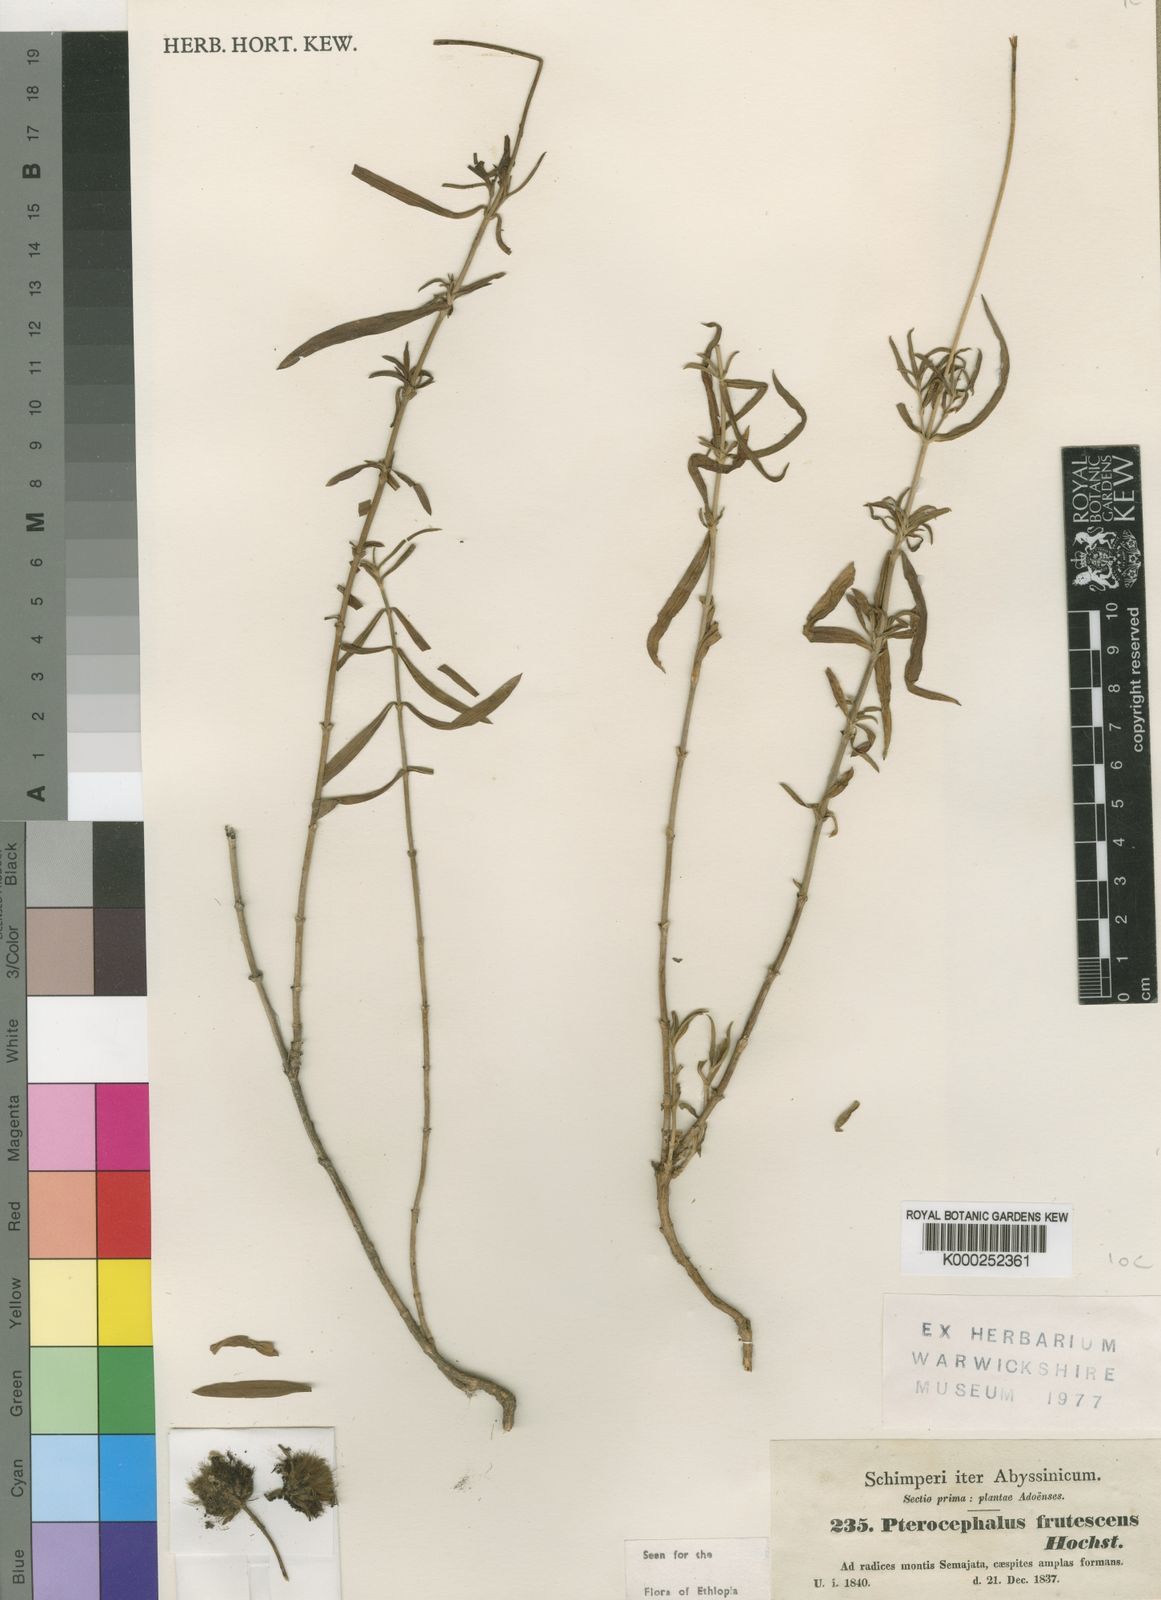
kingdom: Plantae
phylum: Tracheophyta
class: Magnoliopsida
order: Dipsacales
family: Caprifoliaceae
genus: Pterocephalus
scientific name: Pterocephalus
